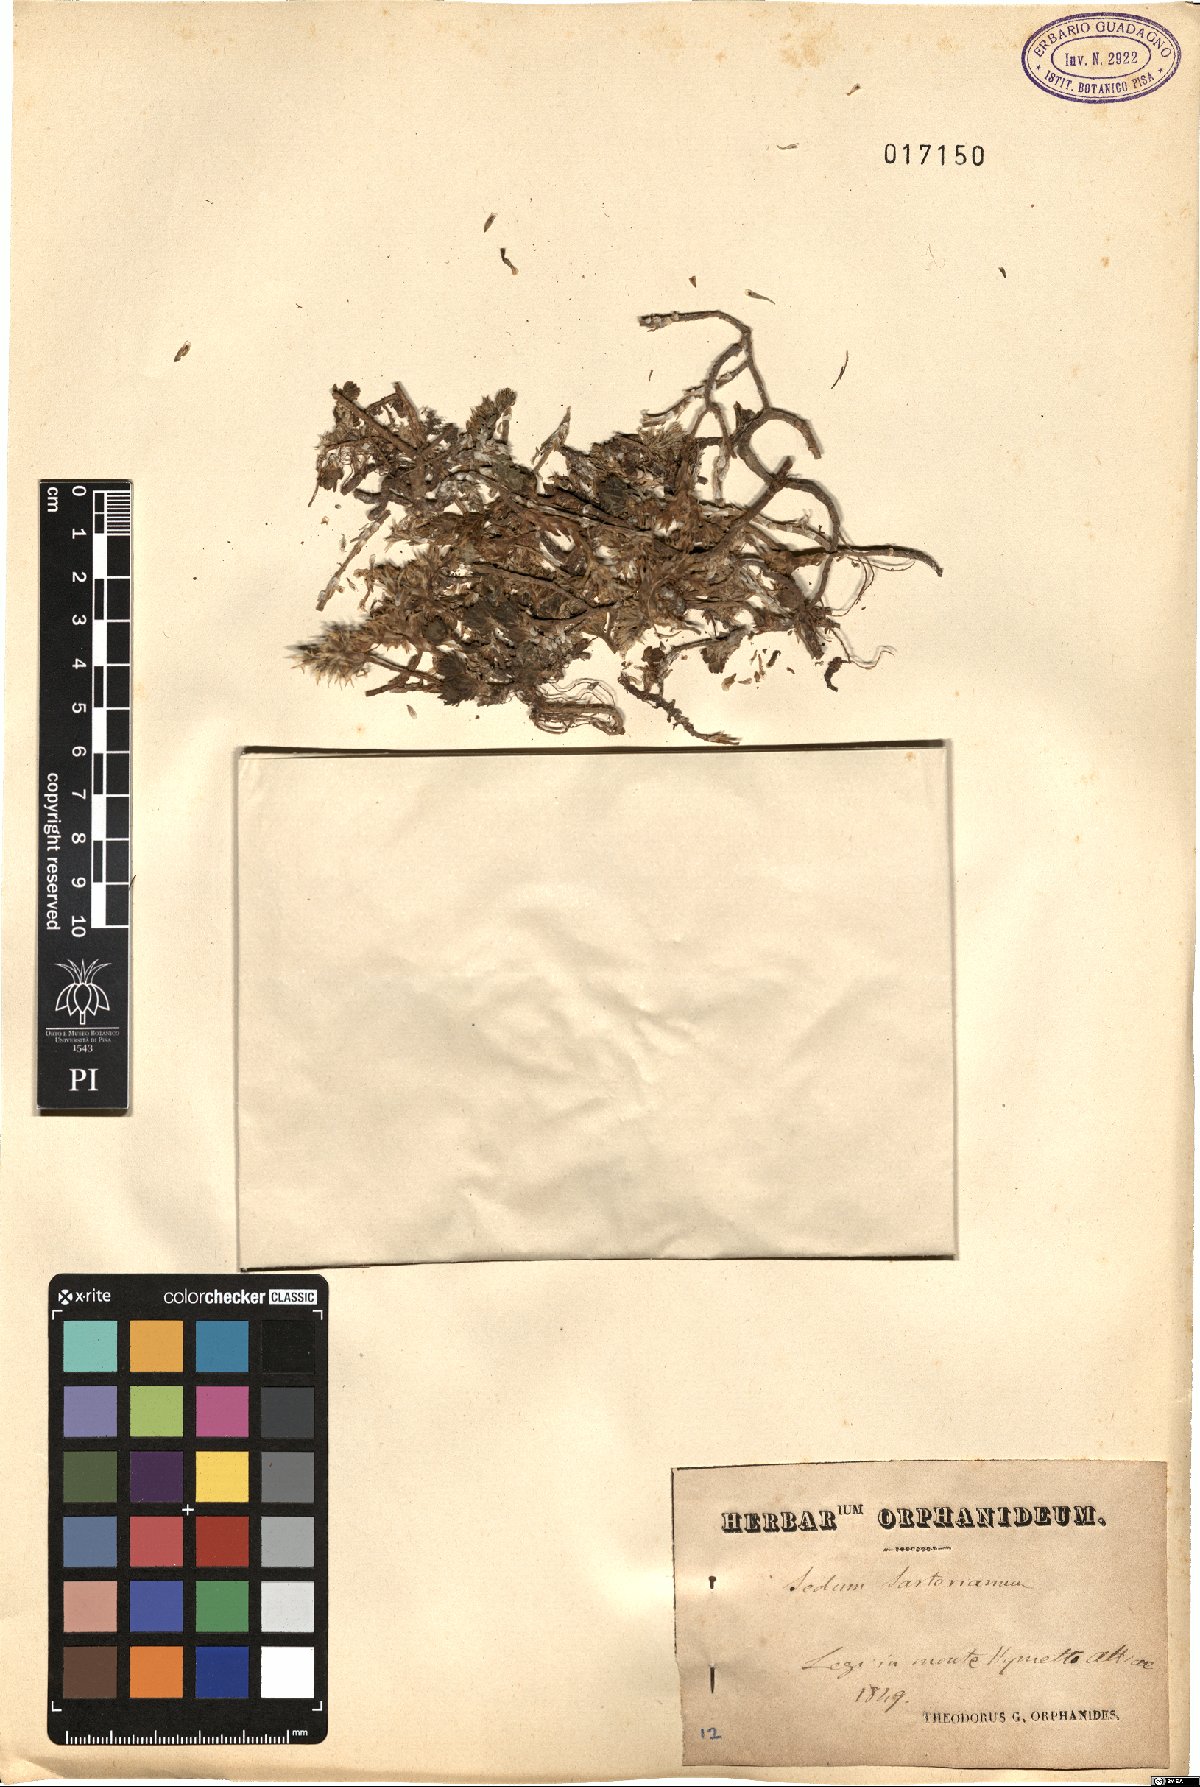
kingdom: Plantae
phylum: Tracheophyta
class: Magnoliopsida
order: Saxifragales
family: Crassulaceae
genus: Sedum
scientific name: Sedum urvillei
